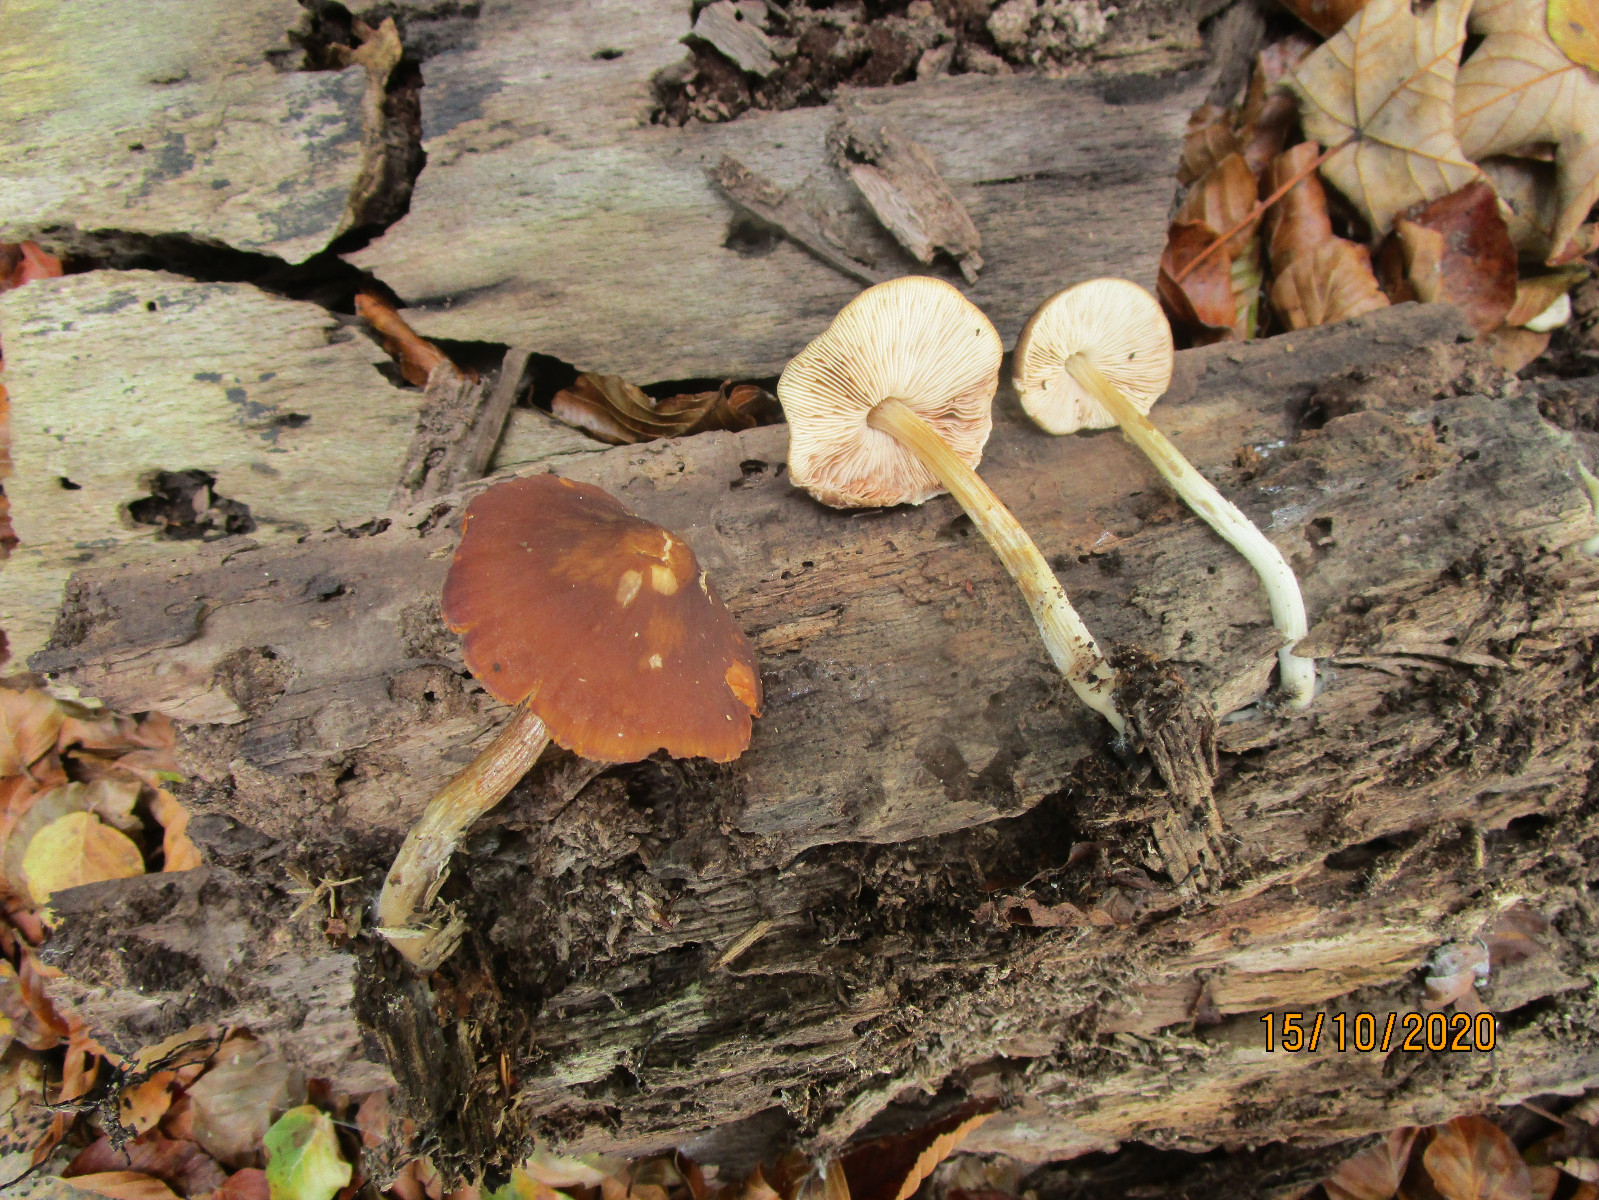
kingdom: Fungi
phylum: Basidiomycota
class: Agaricomycetes
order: Agaricales
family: Pluteaceae
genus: Pluteus
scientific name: Pluteus phlebophorus
